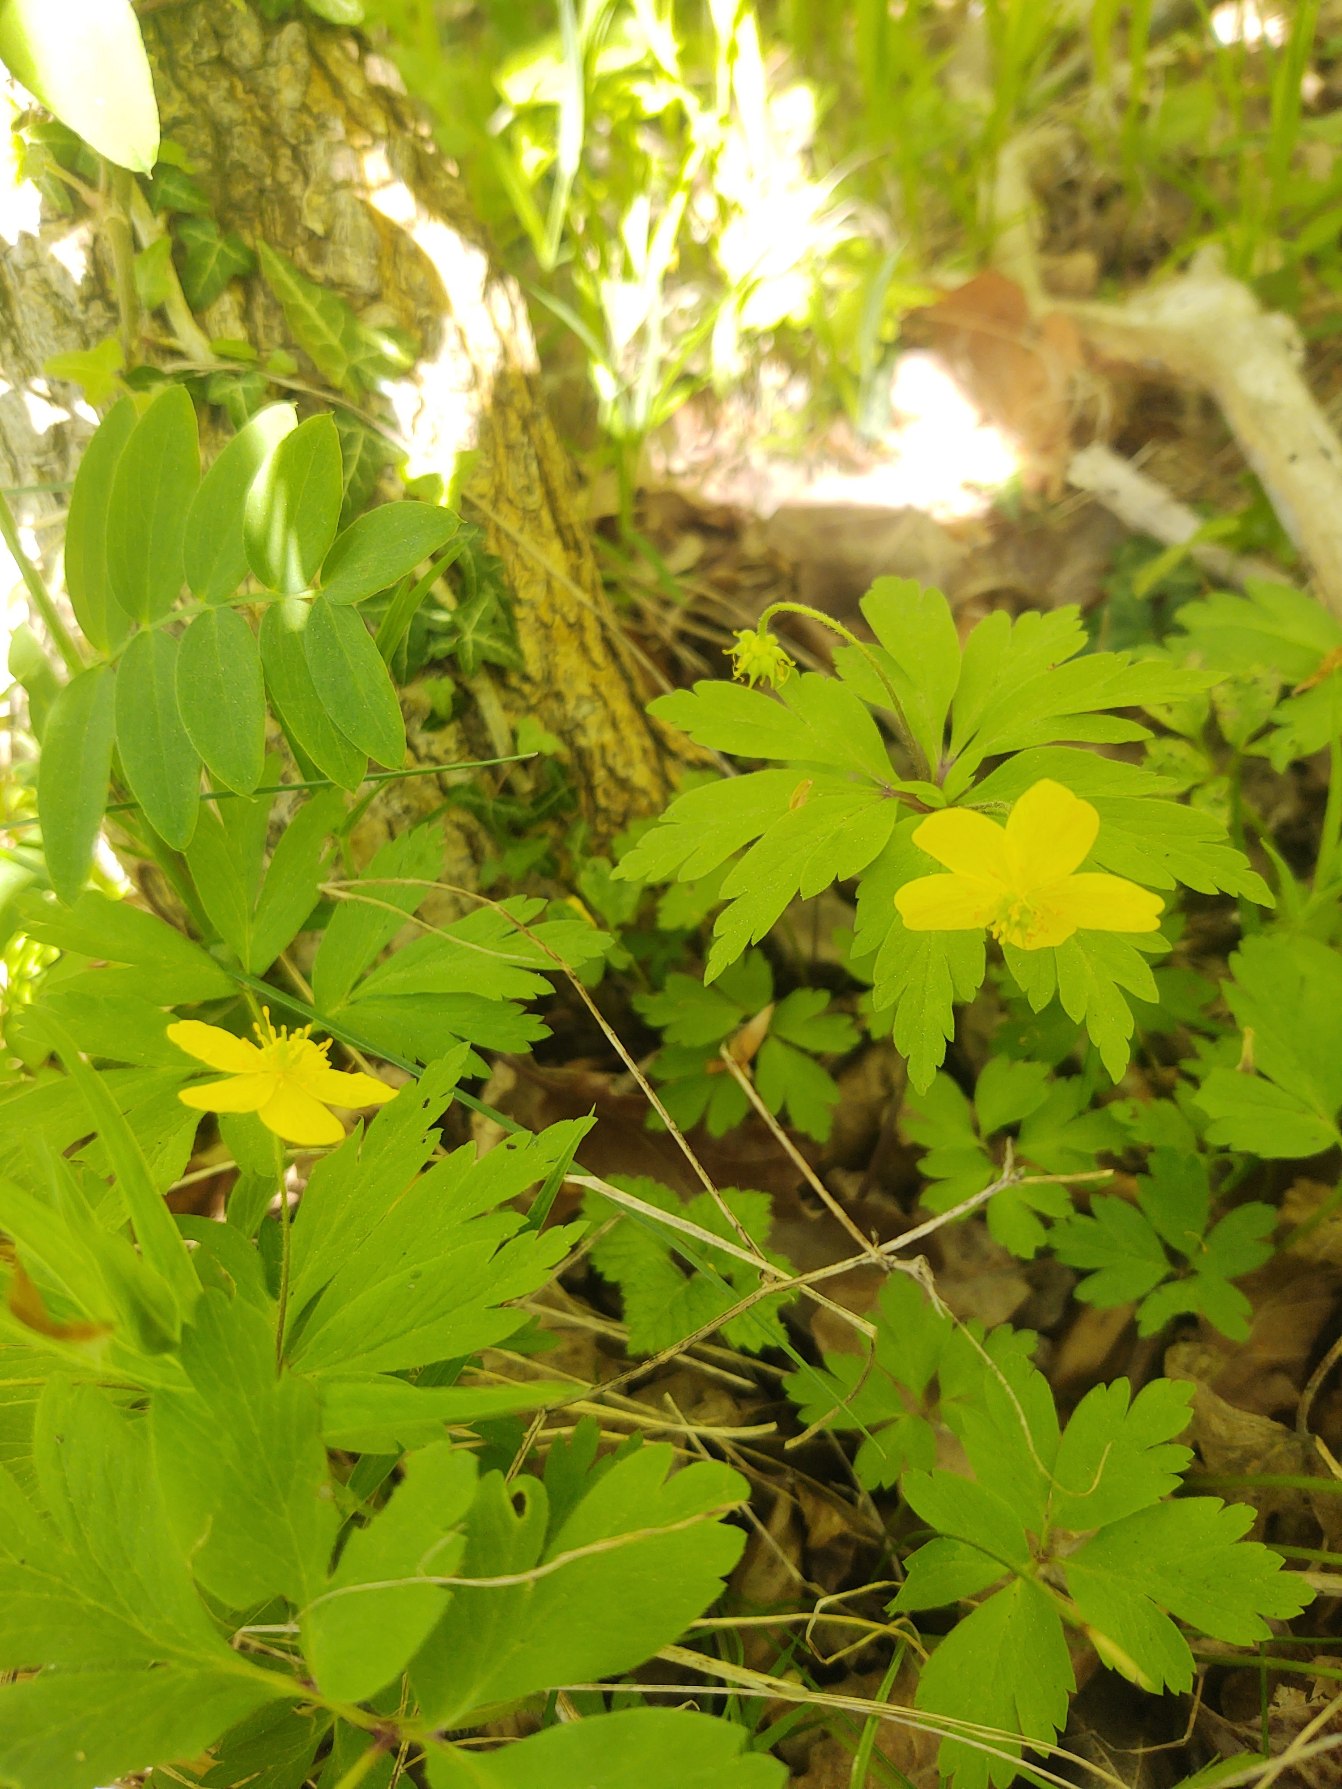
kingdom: Plantae
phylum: Tracheophyta
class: Magnoliopsida
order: Ranunculales
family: Ranunculaceae
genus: Anemone
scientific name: Anemone ranunculoides
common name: Gul anemone
